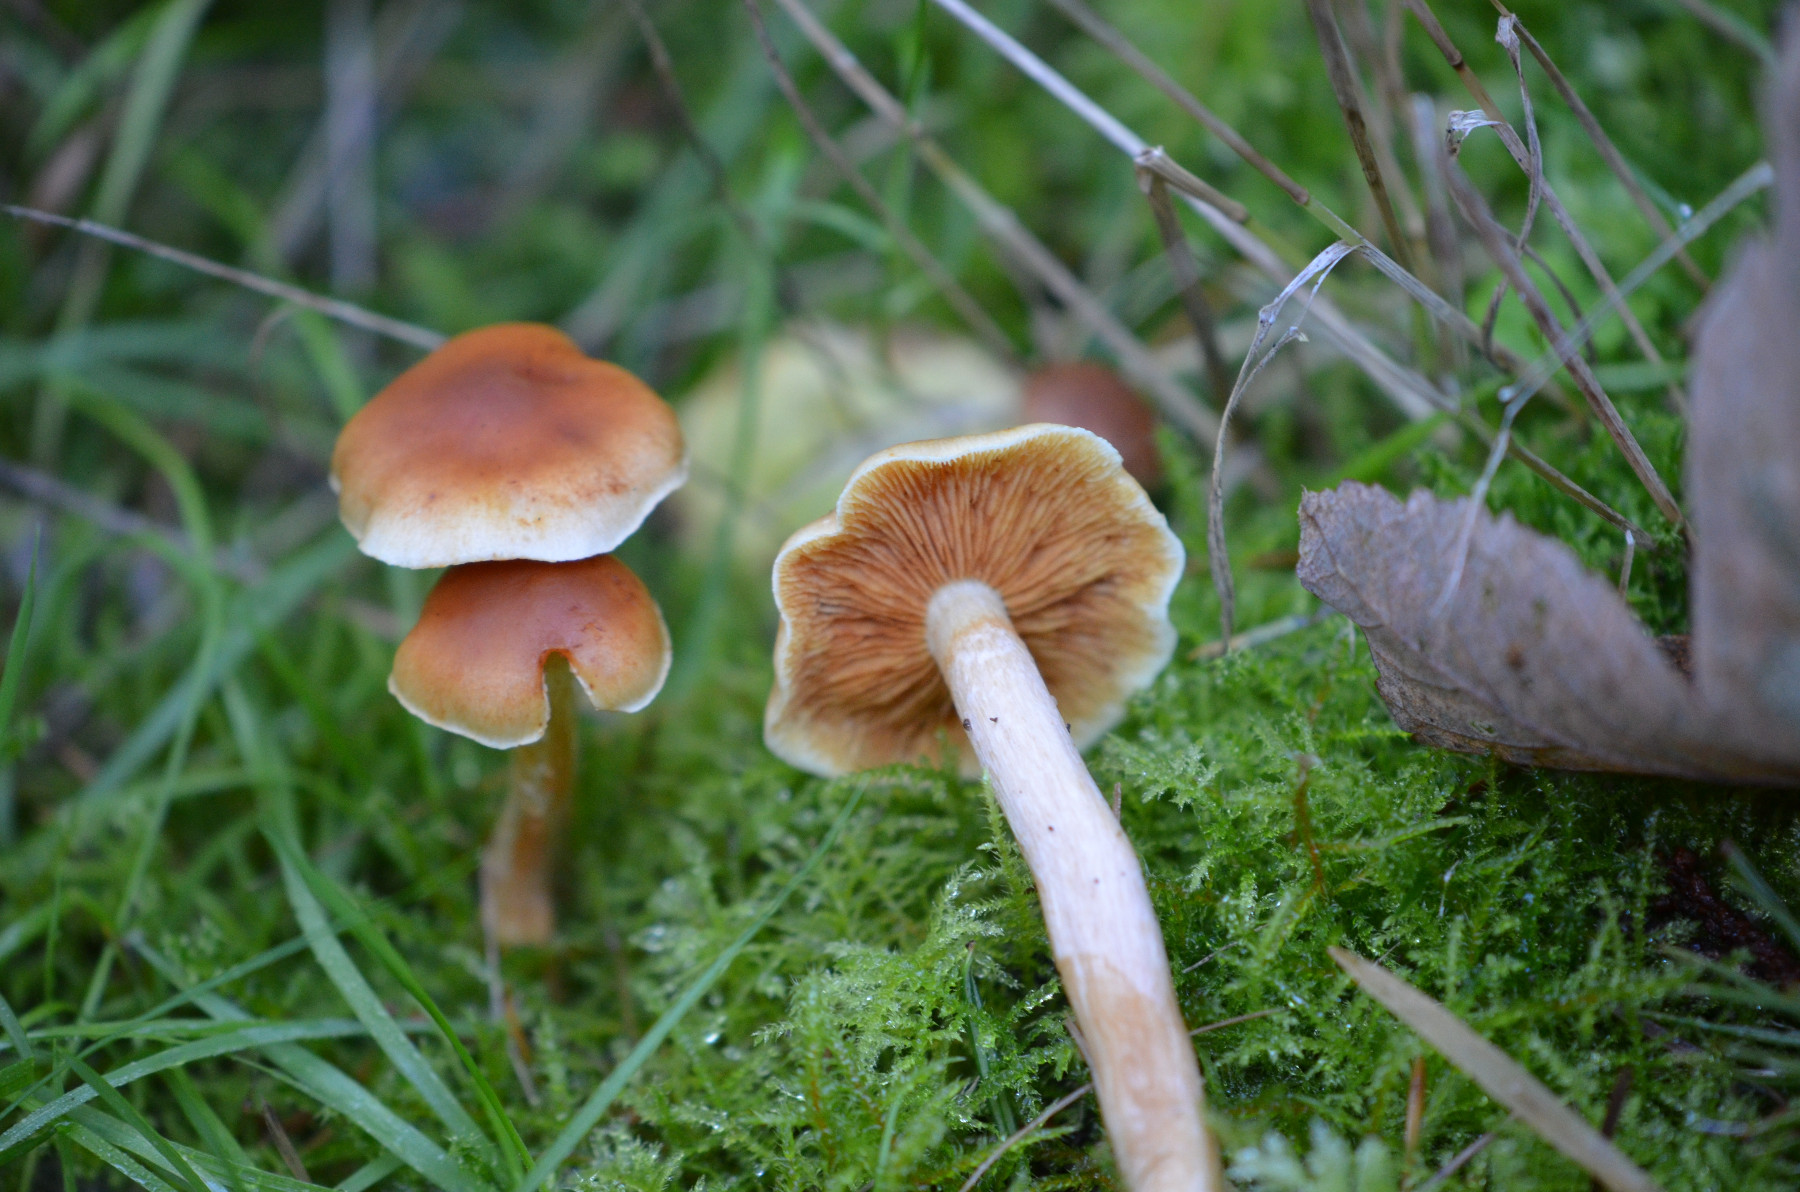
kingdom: Fungi
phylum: Basidiomycota
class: Agaricomycetes
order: Agaricales
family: Hymenogastraceae
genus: Gymnopilus
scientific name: Gymnopilus penetrans
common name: plettet flammehat
